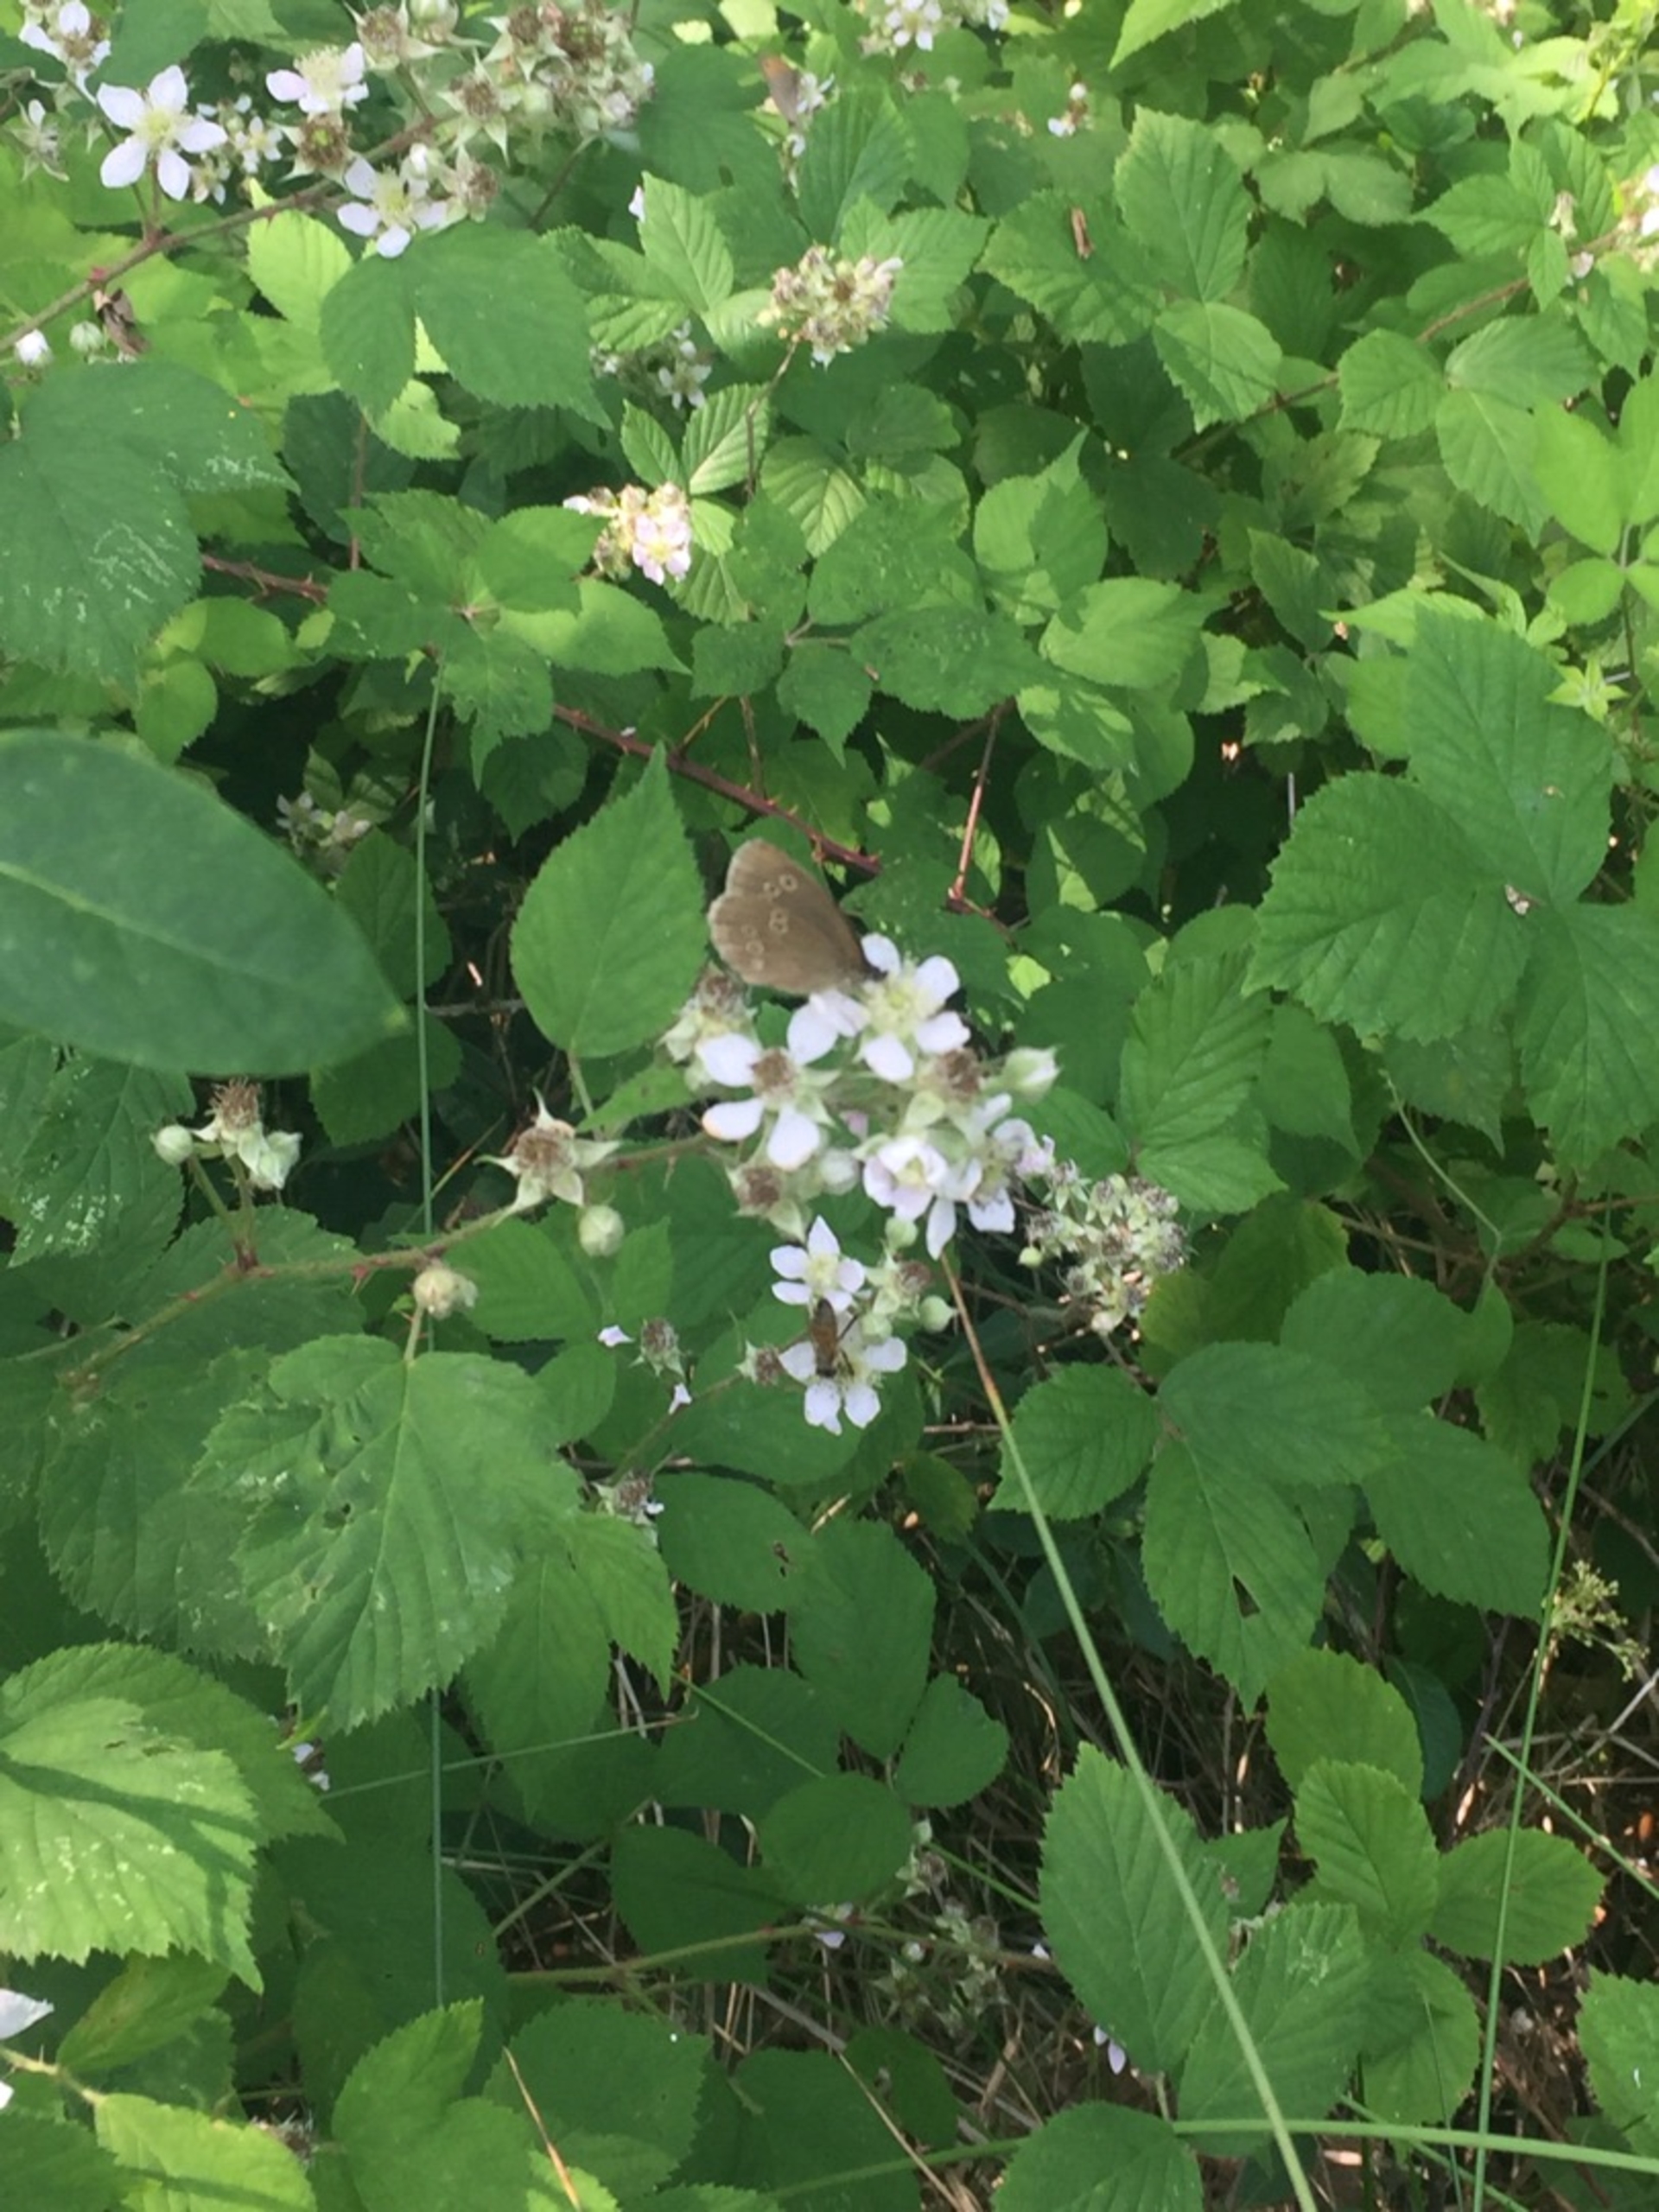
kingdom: Animalia
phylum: Arthropoda
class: Insecta
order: Lepidoptera
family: Nymphalidae
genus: Aphantopus
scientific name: Aphantopus hyperantus
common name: Engrandøje
